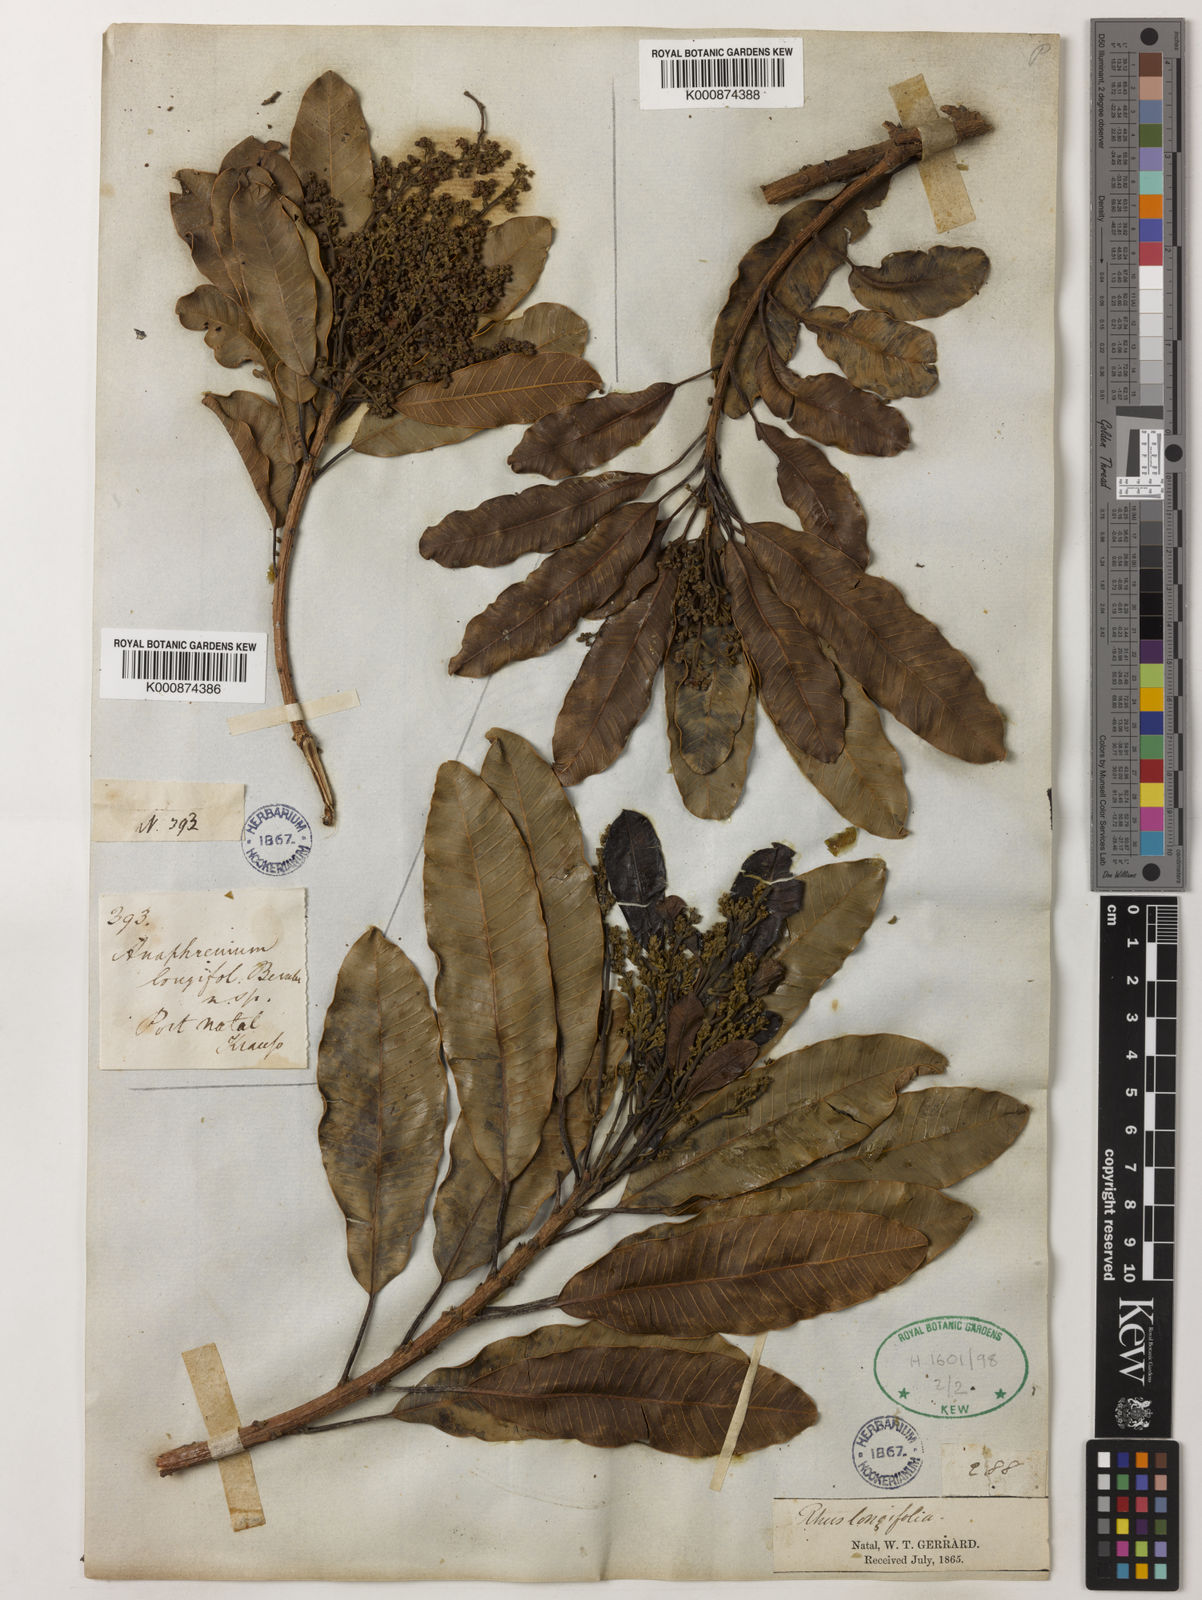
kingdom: Plantae
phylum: Tracheophyta
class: Magnoliopsida
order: Sapindales
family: Anacardiaceae
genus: Protorhus
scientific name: Protorhus longifolia
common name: Red-beech
